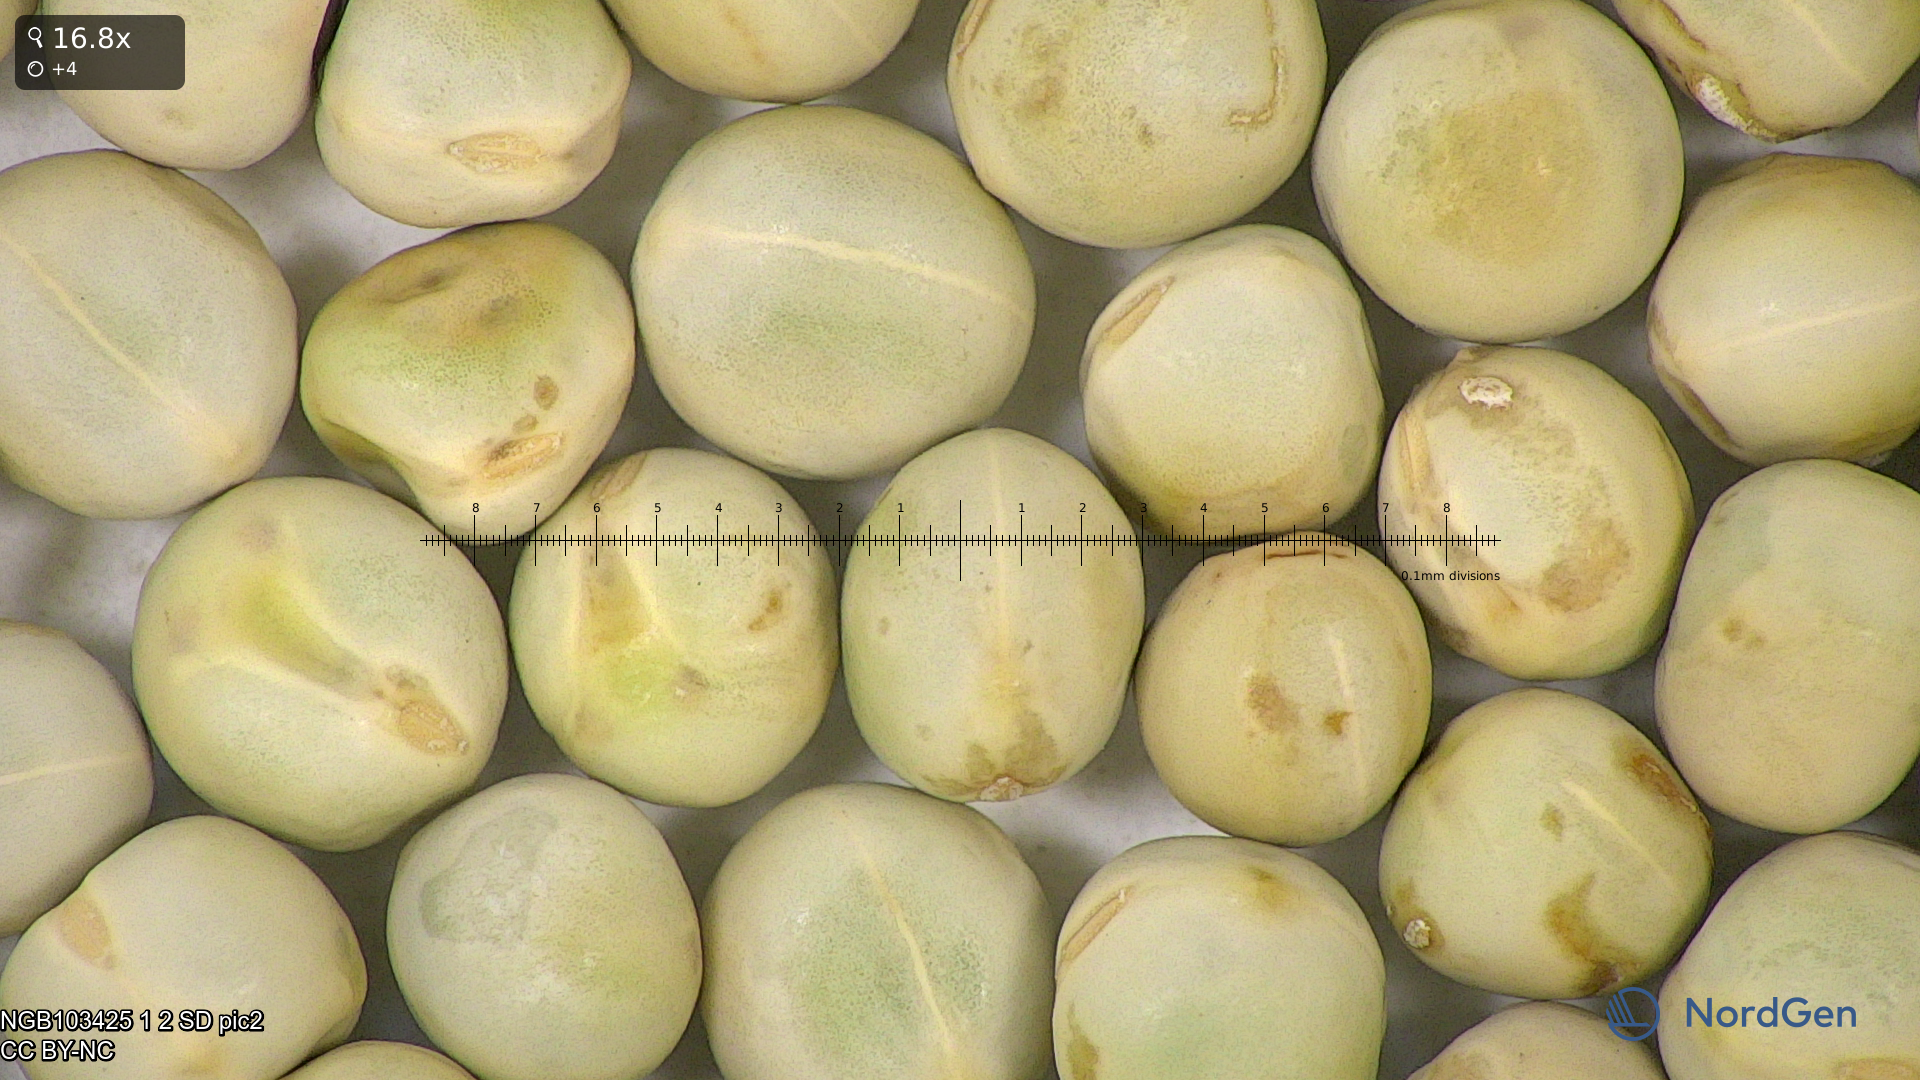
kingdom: Plantae
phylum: Tracheophyta
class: Magnoliopsida
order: Fabales
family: Fabaceae
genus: Lathyrus
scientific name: Lathyrus oleraceus
